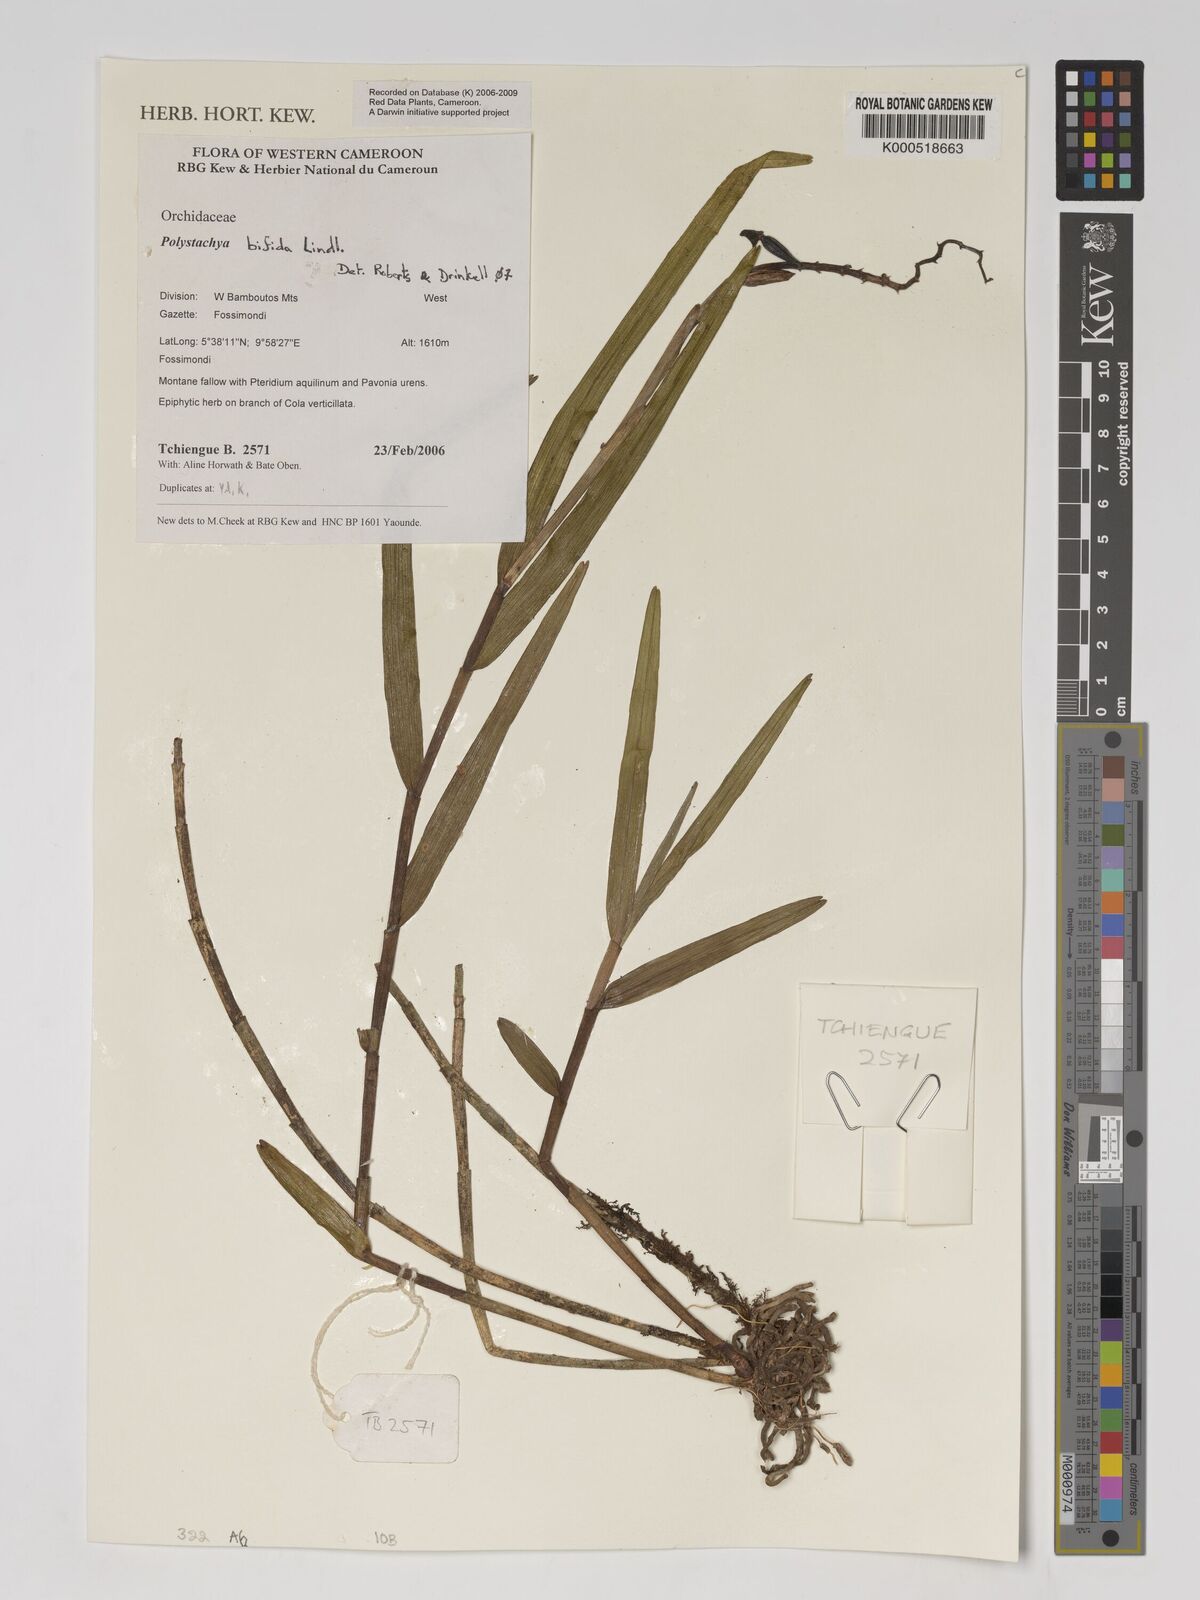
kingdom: Plantae
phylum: Tracheophyta
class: Liliopsida
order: Asparagales
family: Orchidaceae
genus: Polystachya
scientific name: Polystachya bifida
